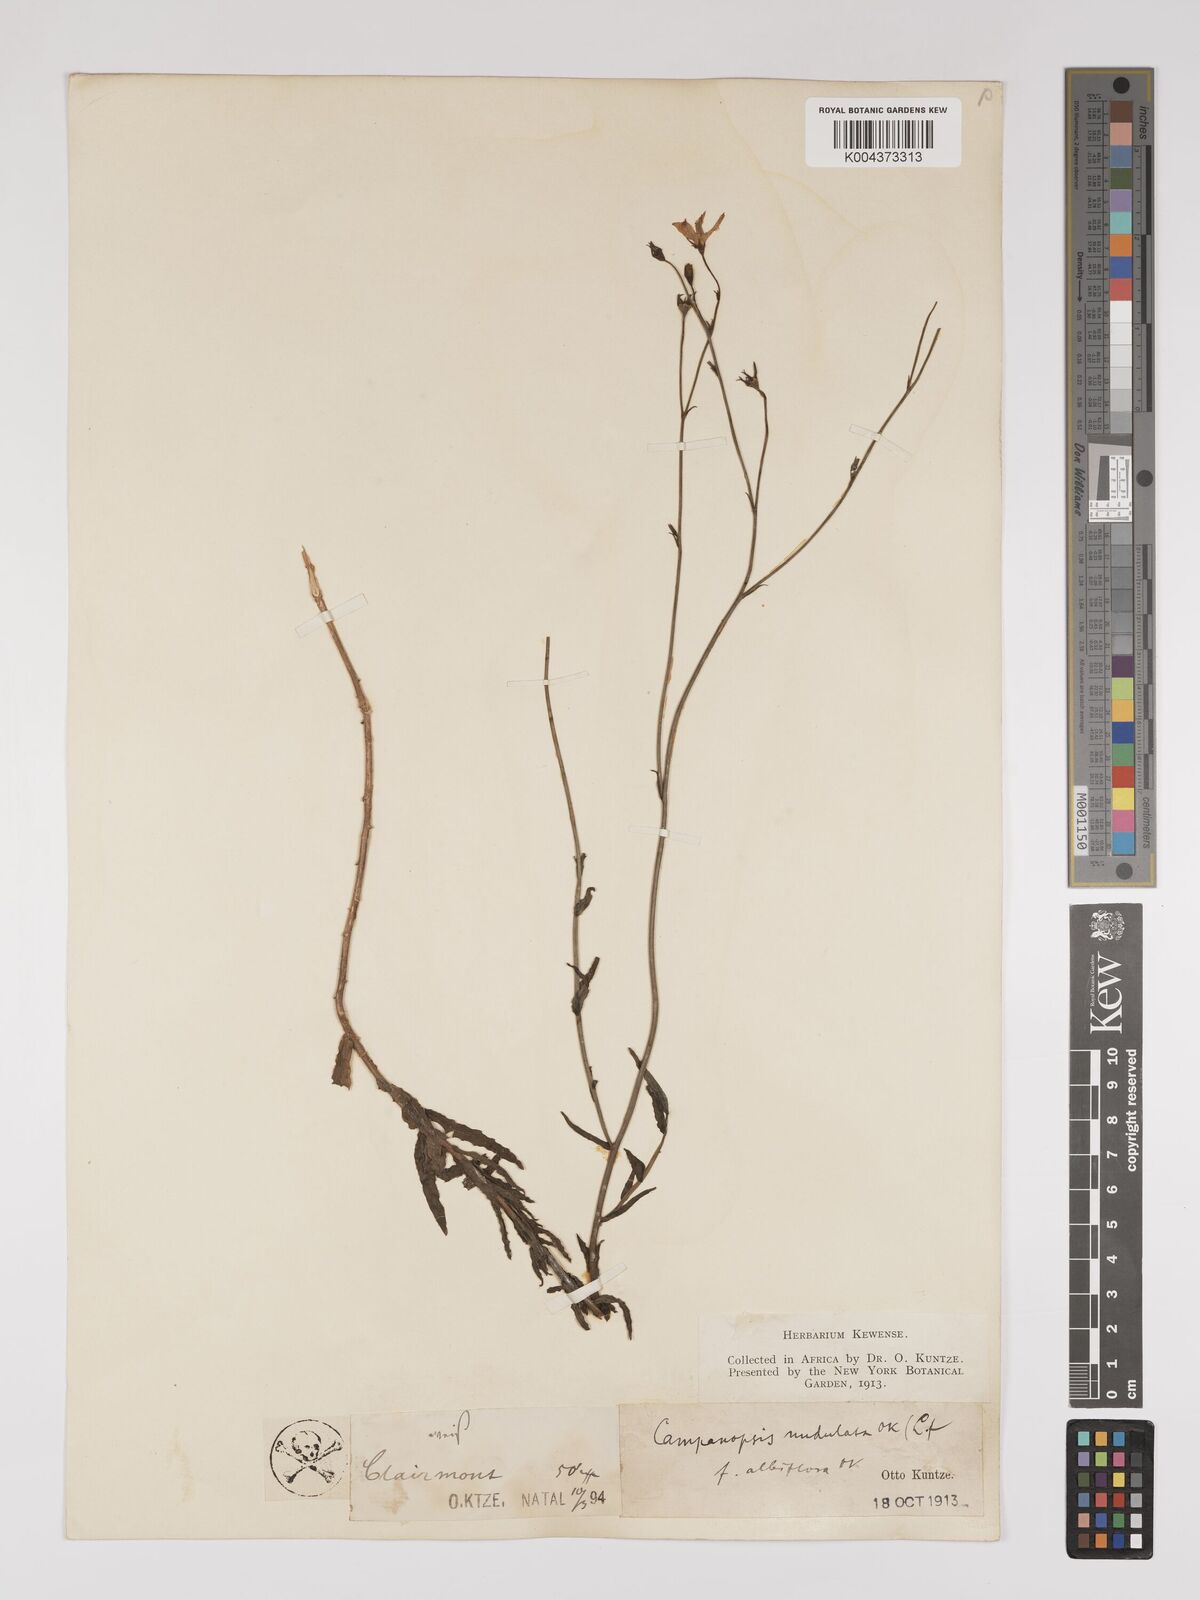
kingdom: Plantae
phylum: Tracheophyta
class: Magnoliopsida
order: Asterales
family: Campanulaceae
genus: Wahlenbergia
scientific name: Wahlenbergia undulata
